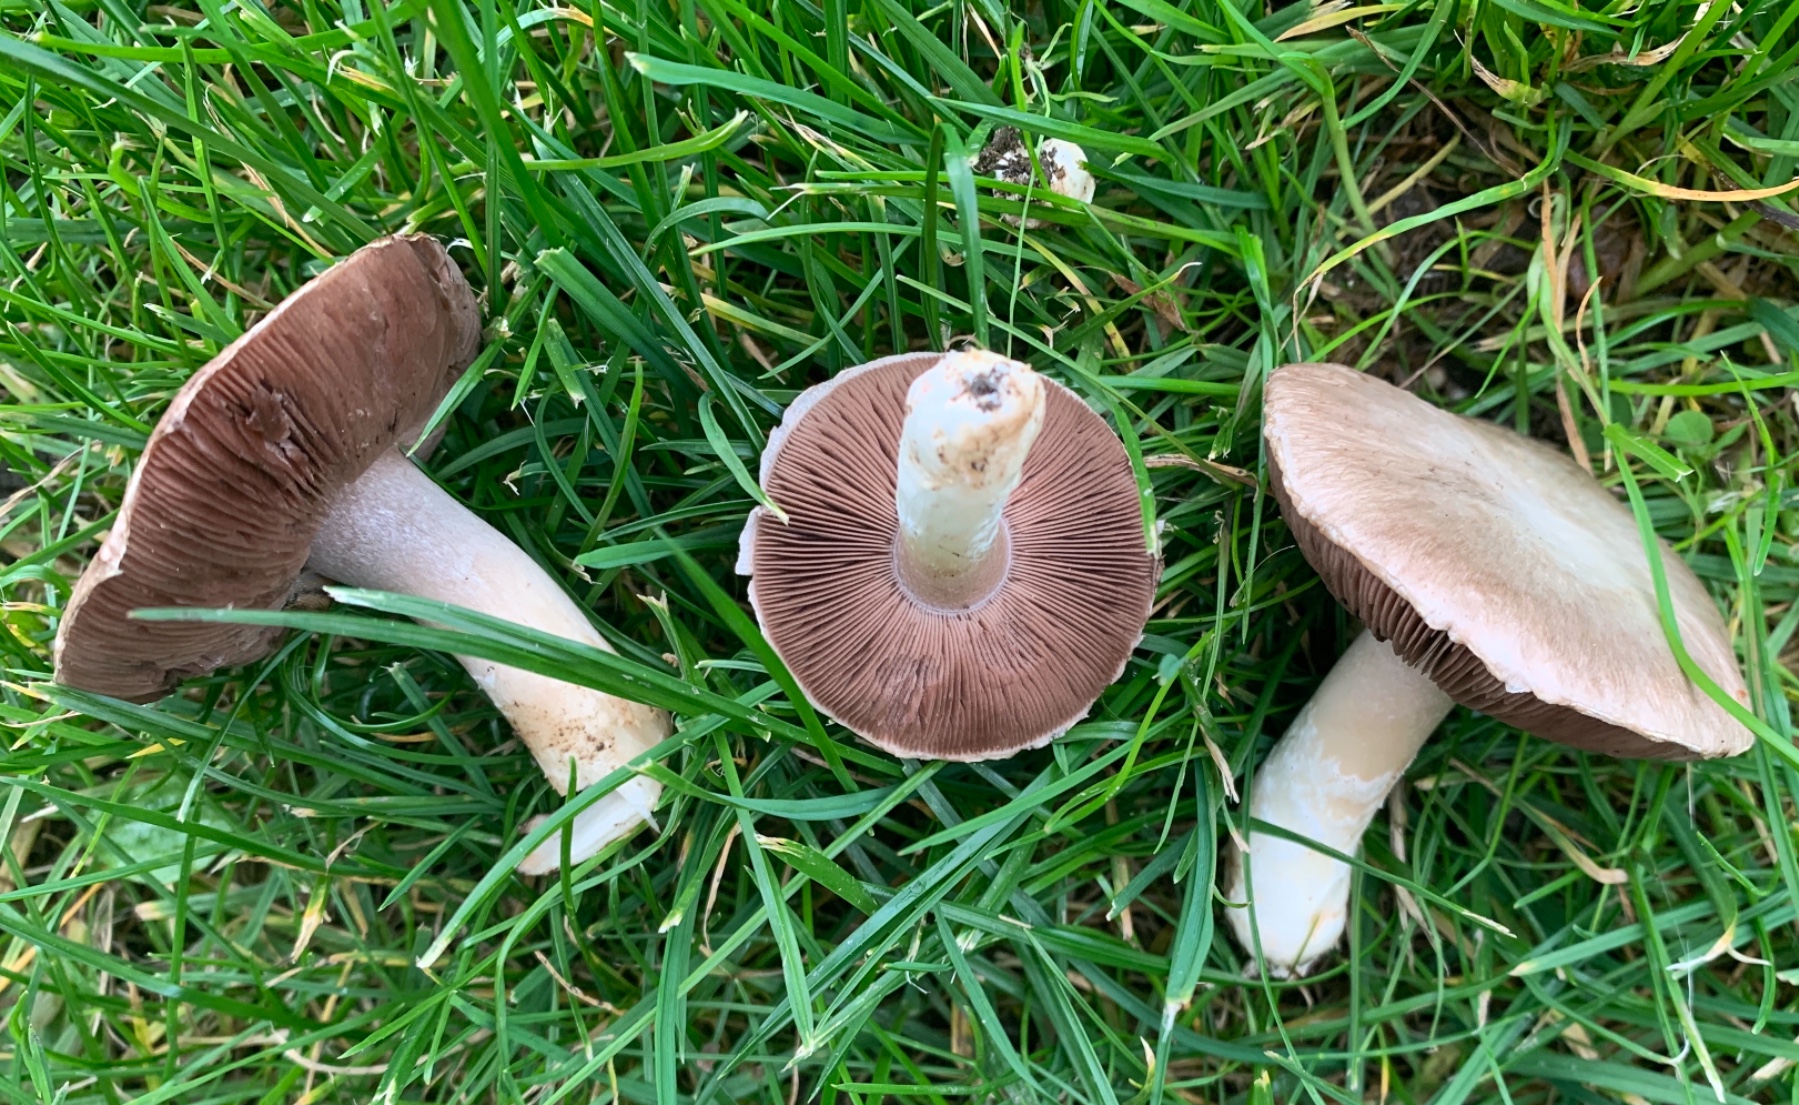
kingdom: Fungi
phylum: Basidiomycota
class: Agaricomycetes
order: Agaricales
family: Agaricaceae
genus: Agaricus
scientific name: Agaricus campestris
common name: mark-champignon
